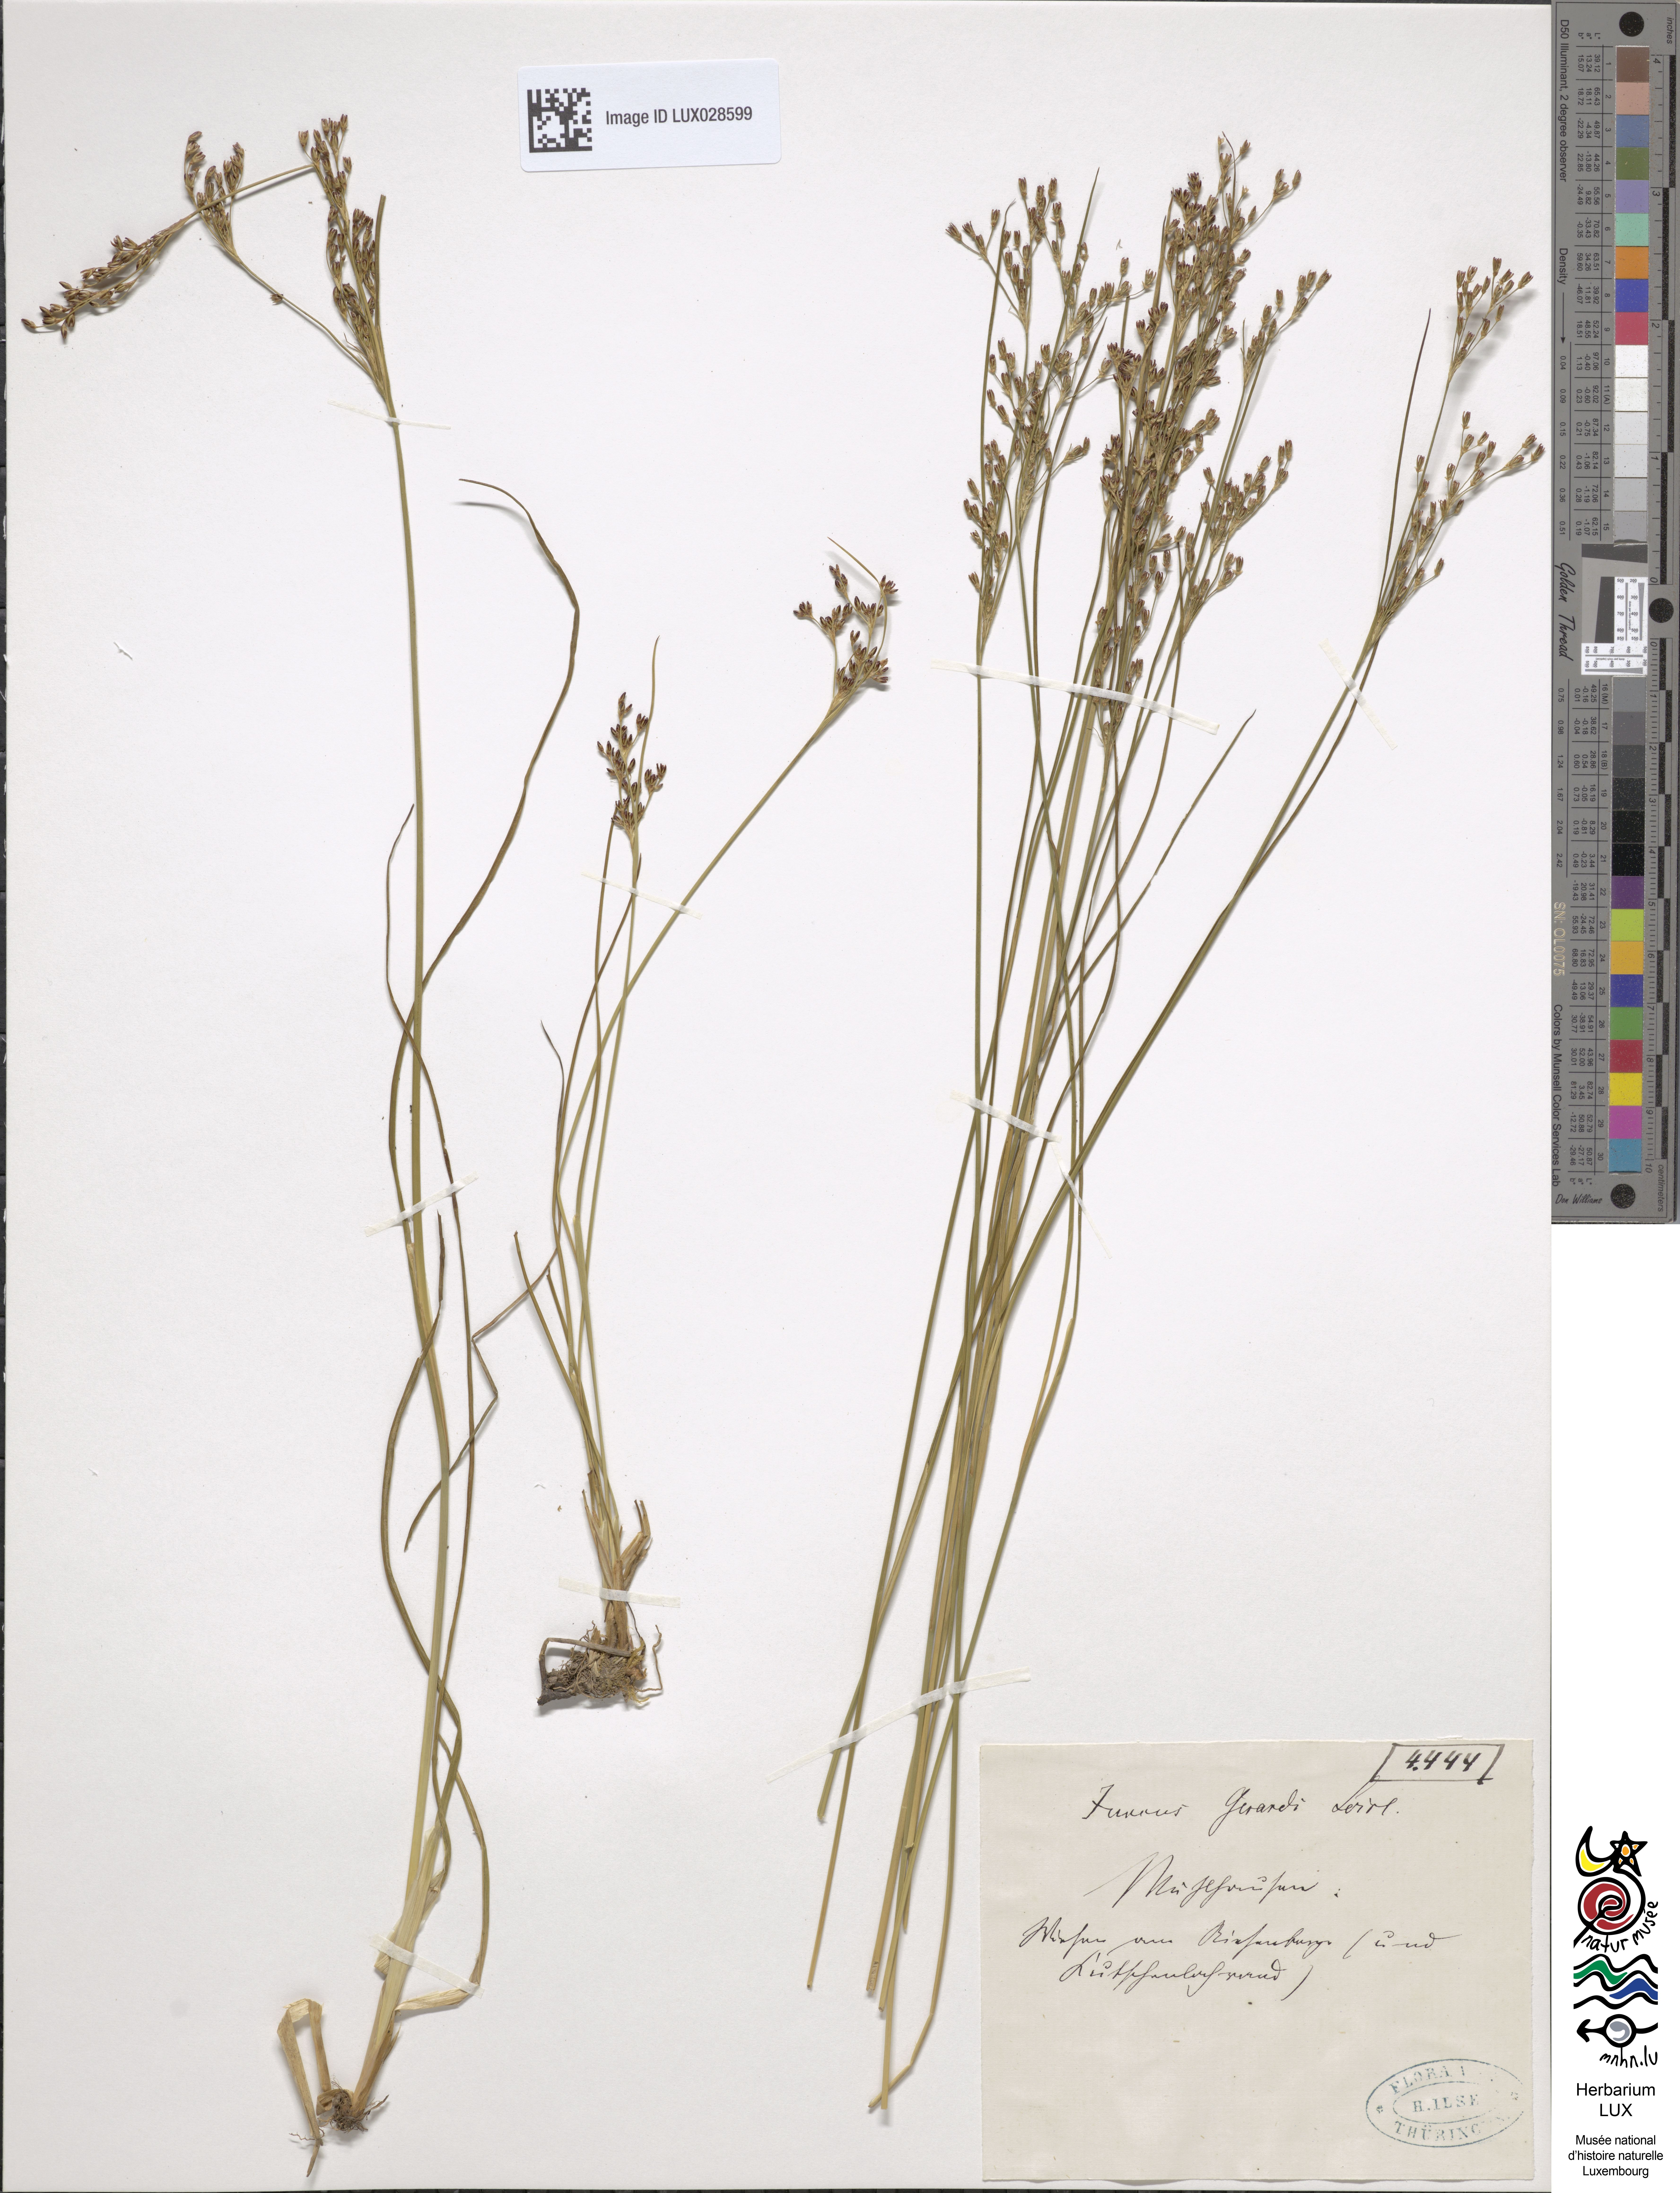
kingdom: Plantae
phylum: Tracheophyta
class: Liliopsida
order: Poales
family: Juncaceae
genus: Juncus
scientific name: Juncus gerardi
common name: Saltmarsh rush
